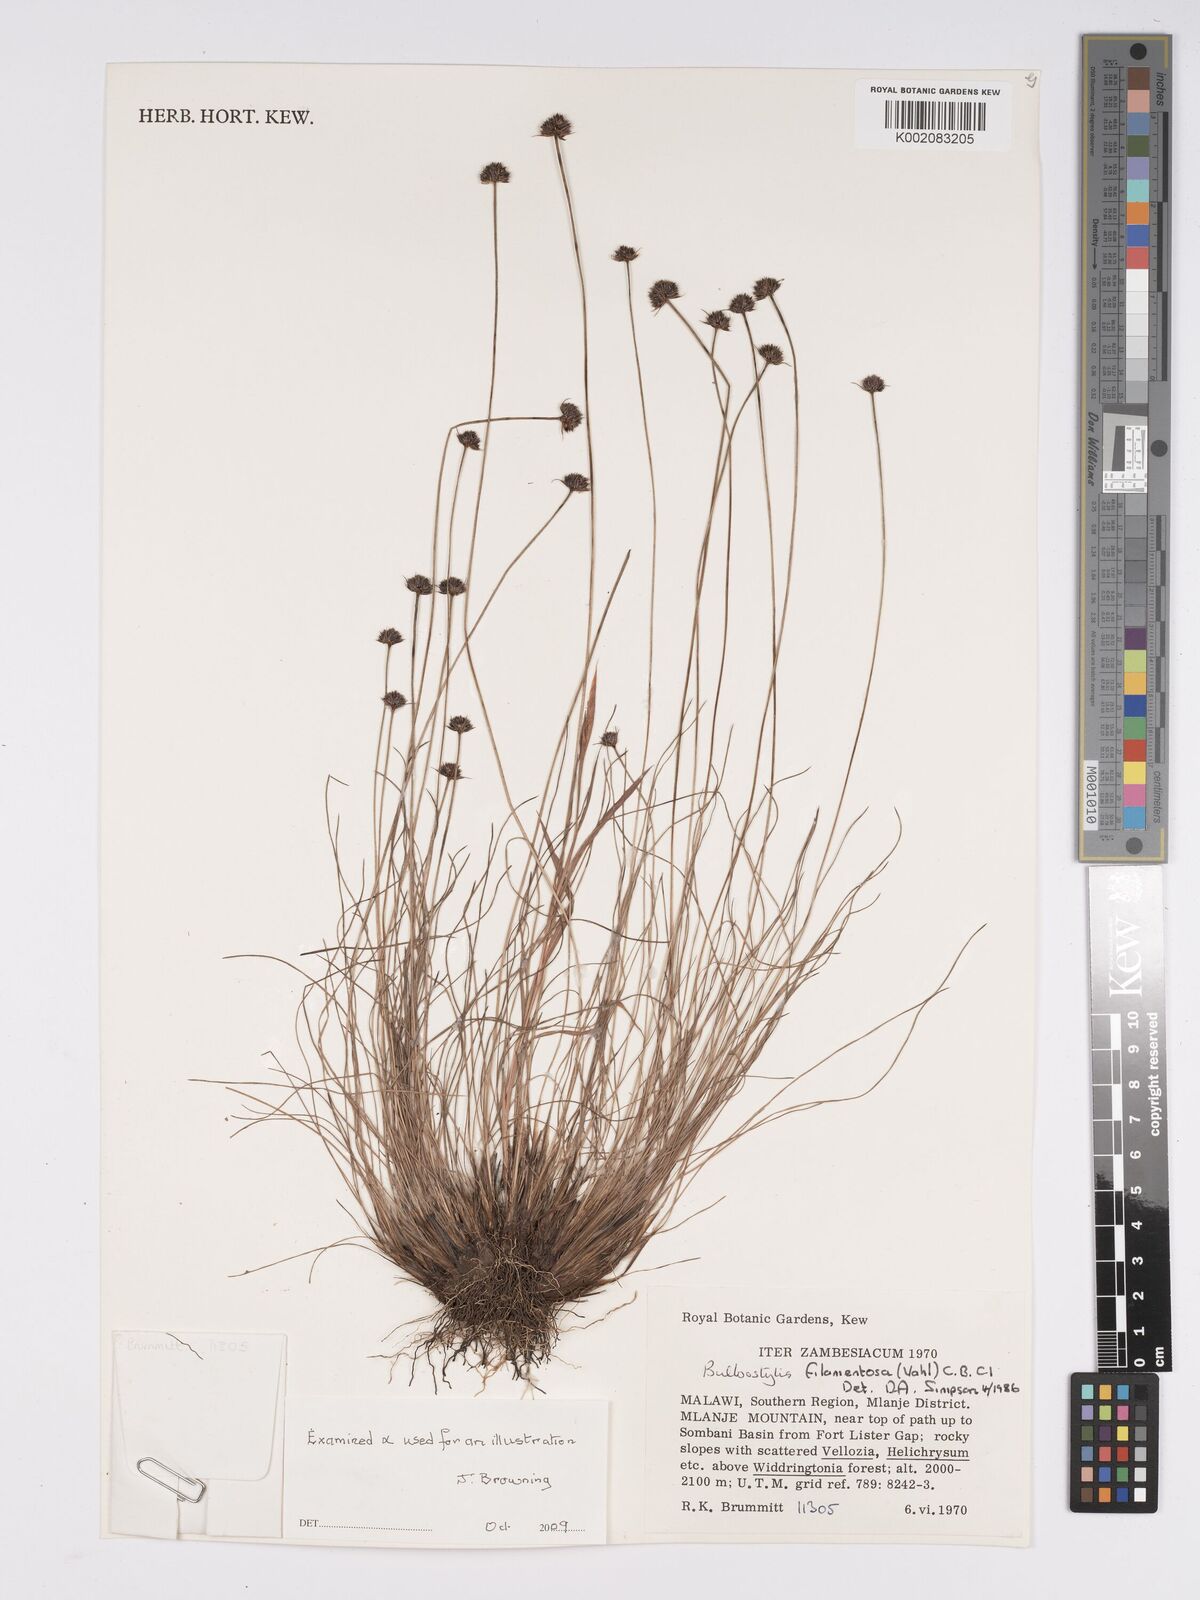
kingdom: Plantae
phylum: Tracheophyta
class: Liliopsida
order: Poales
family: Cyperaceae
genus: Bulbostylis
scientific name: Bulbostylis filamentosa
